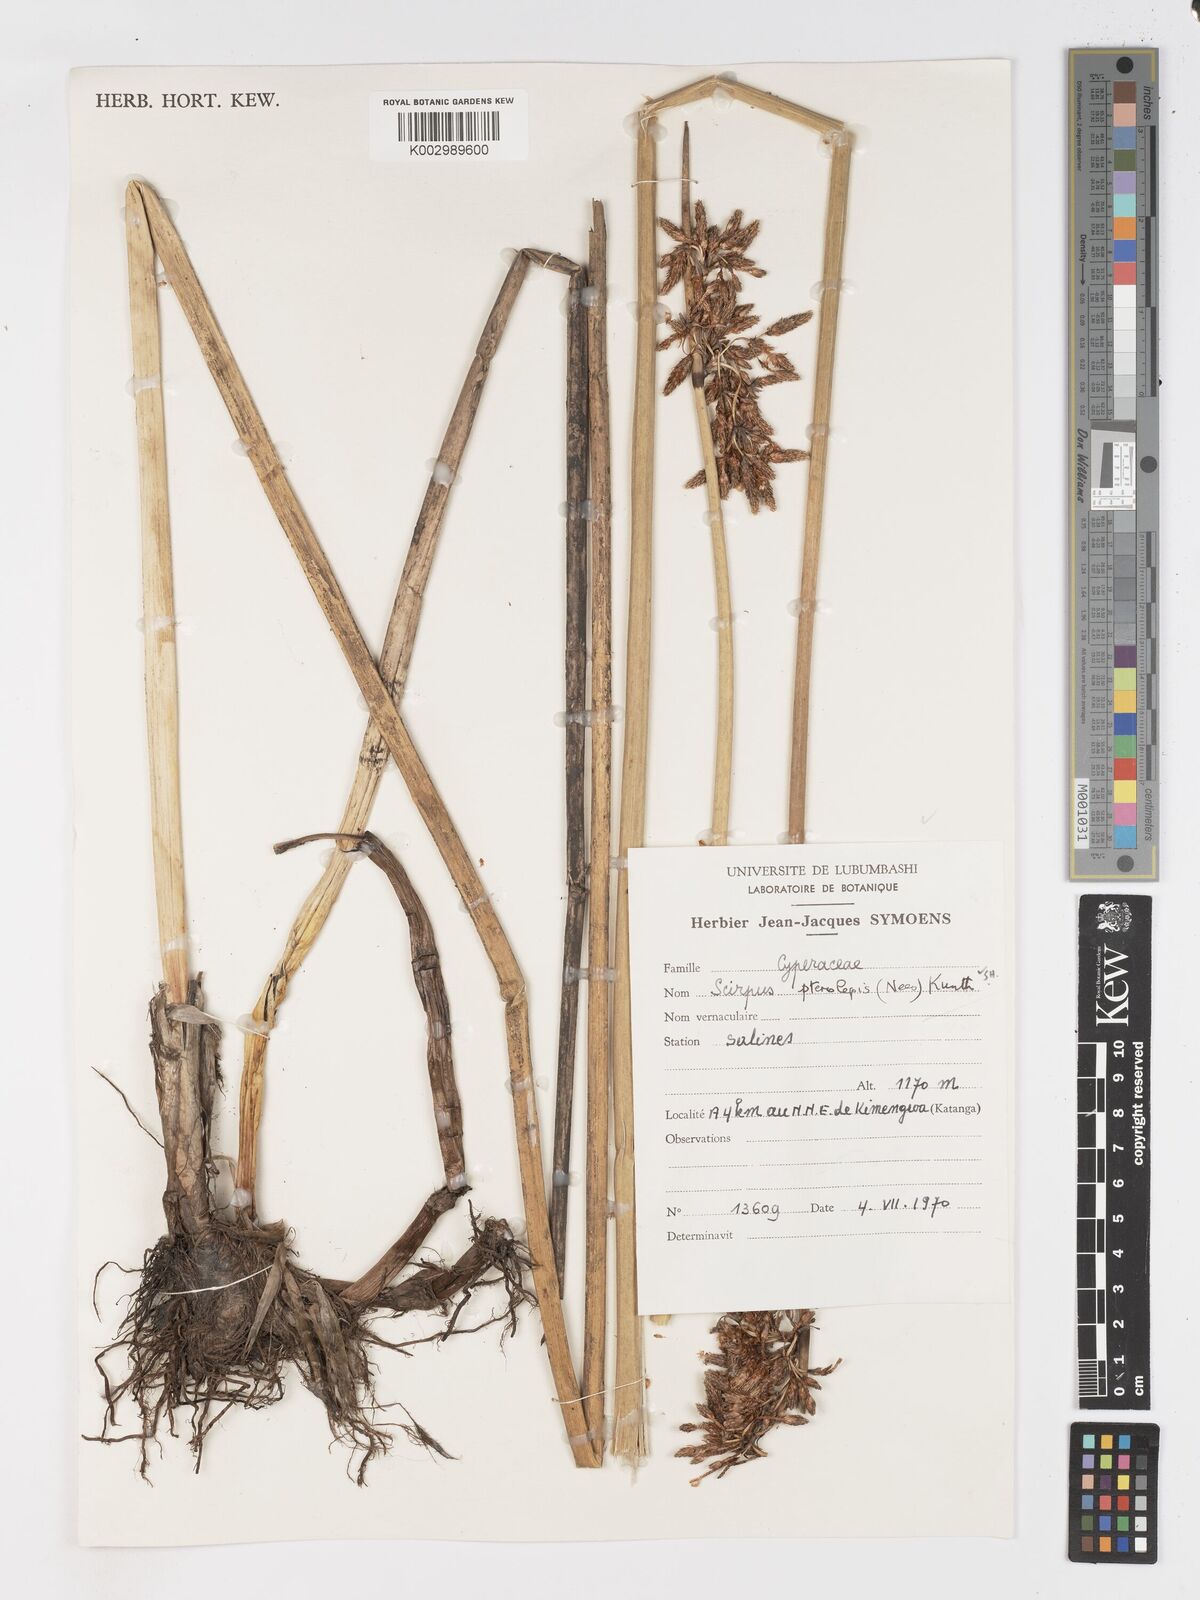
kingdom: Plantae
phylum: Tracheophyta
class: Liliopsida
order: Poales
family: Cyperaceae
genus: Schoenoplectus
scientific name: Schoenoplectus
